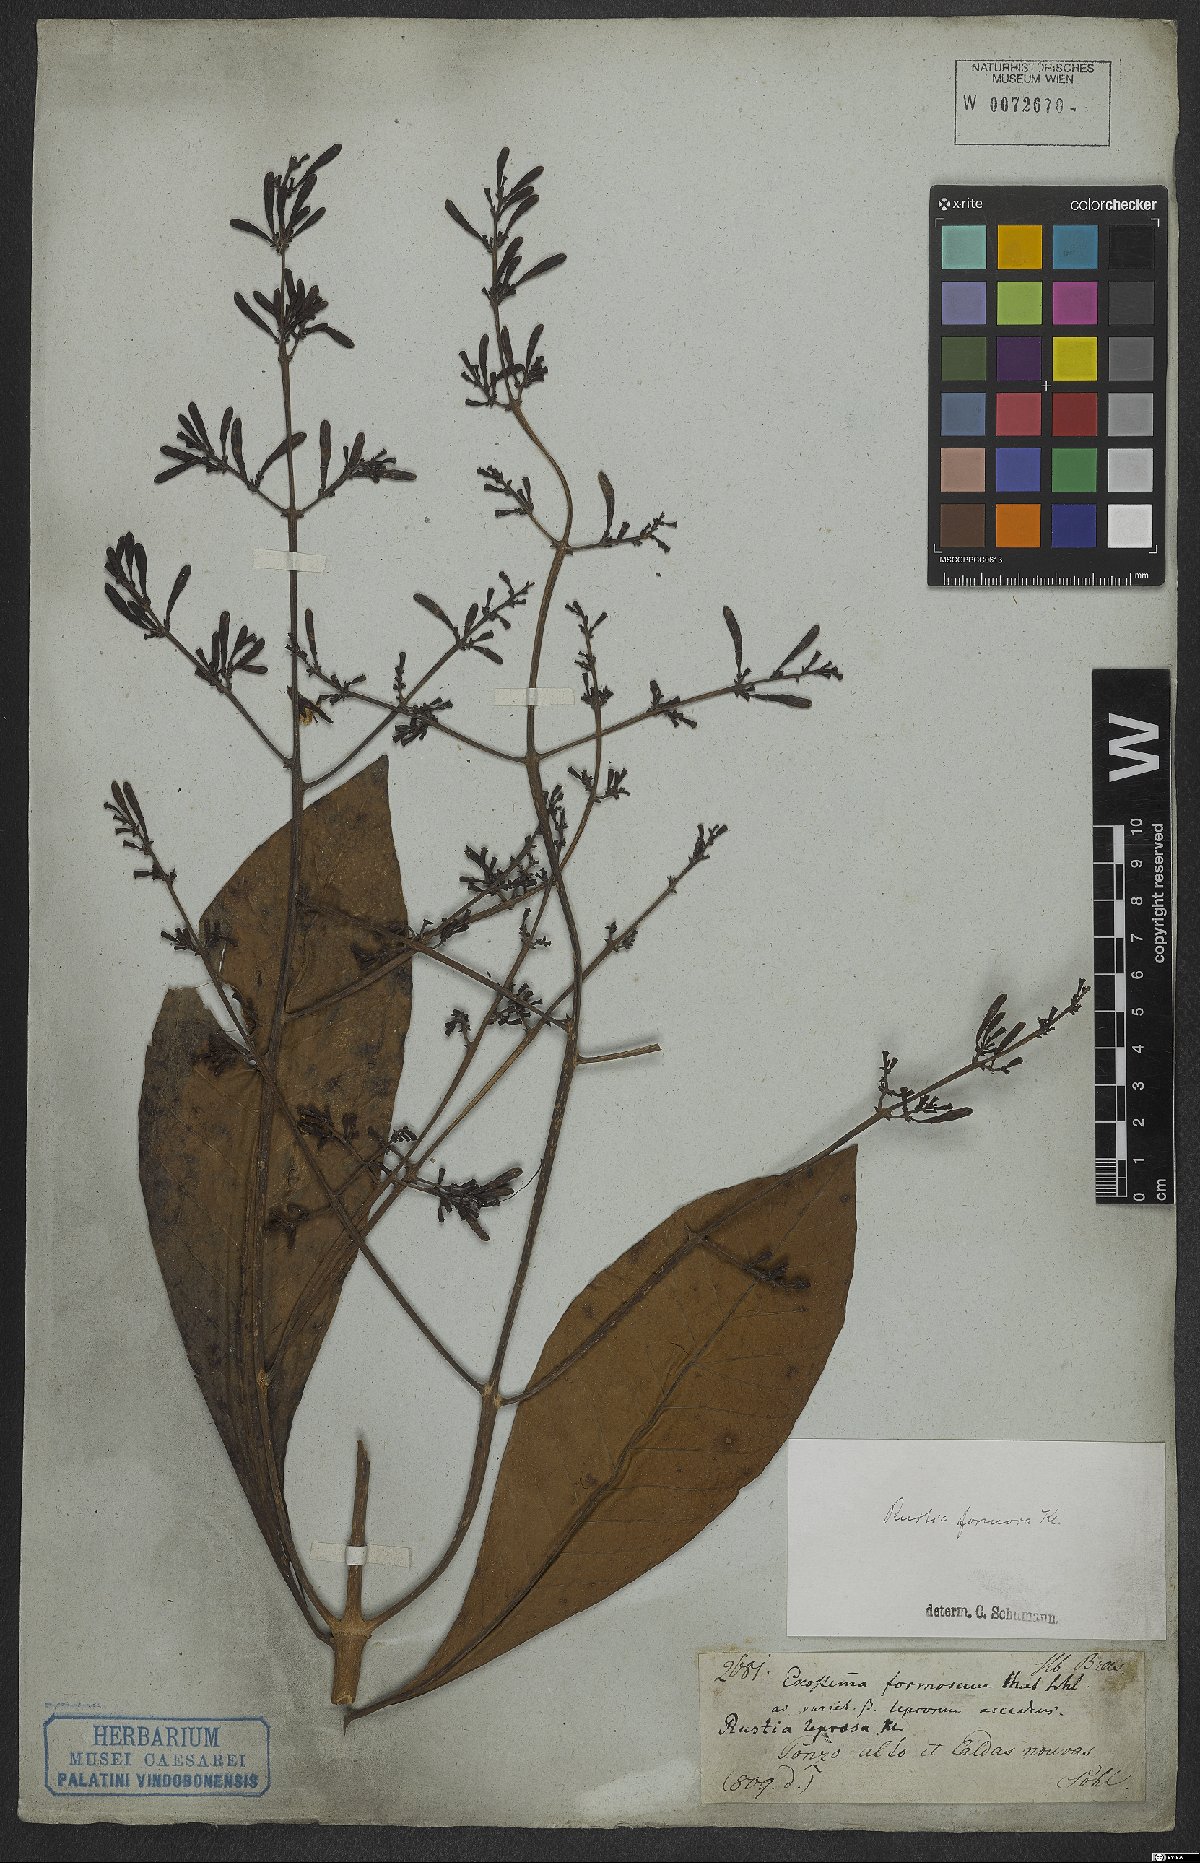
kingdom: Plantae
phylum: Tracheophyta
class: Magnoliopsida
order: Gentianales
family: Rubiaceae
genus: Rustia
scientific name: Rustia formosa
